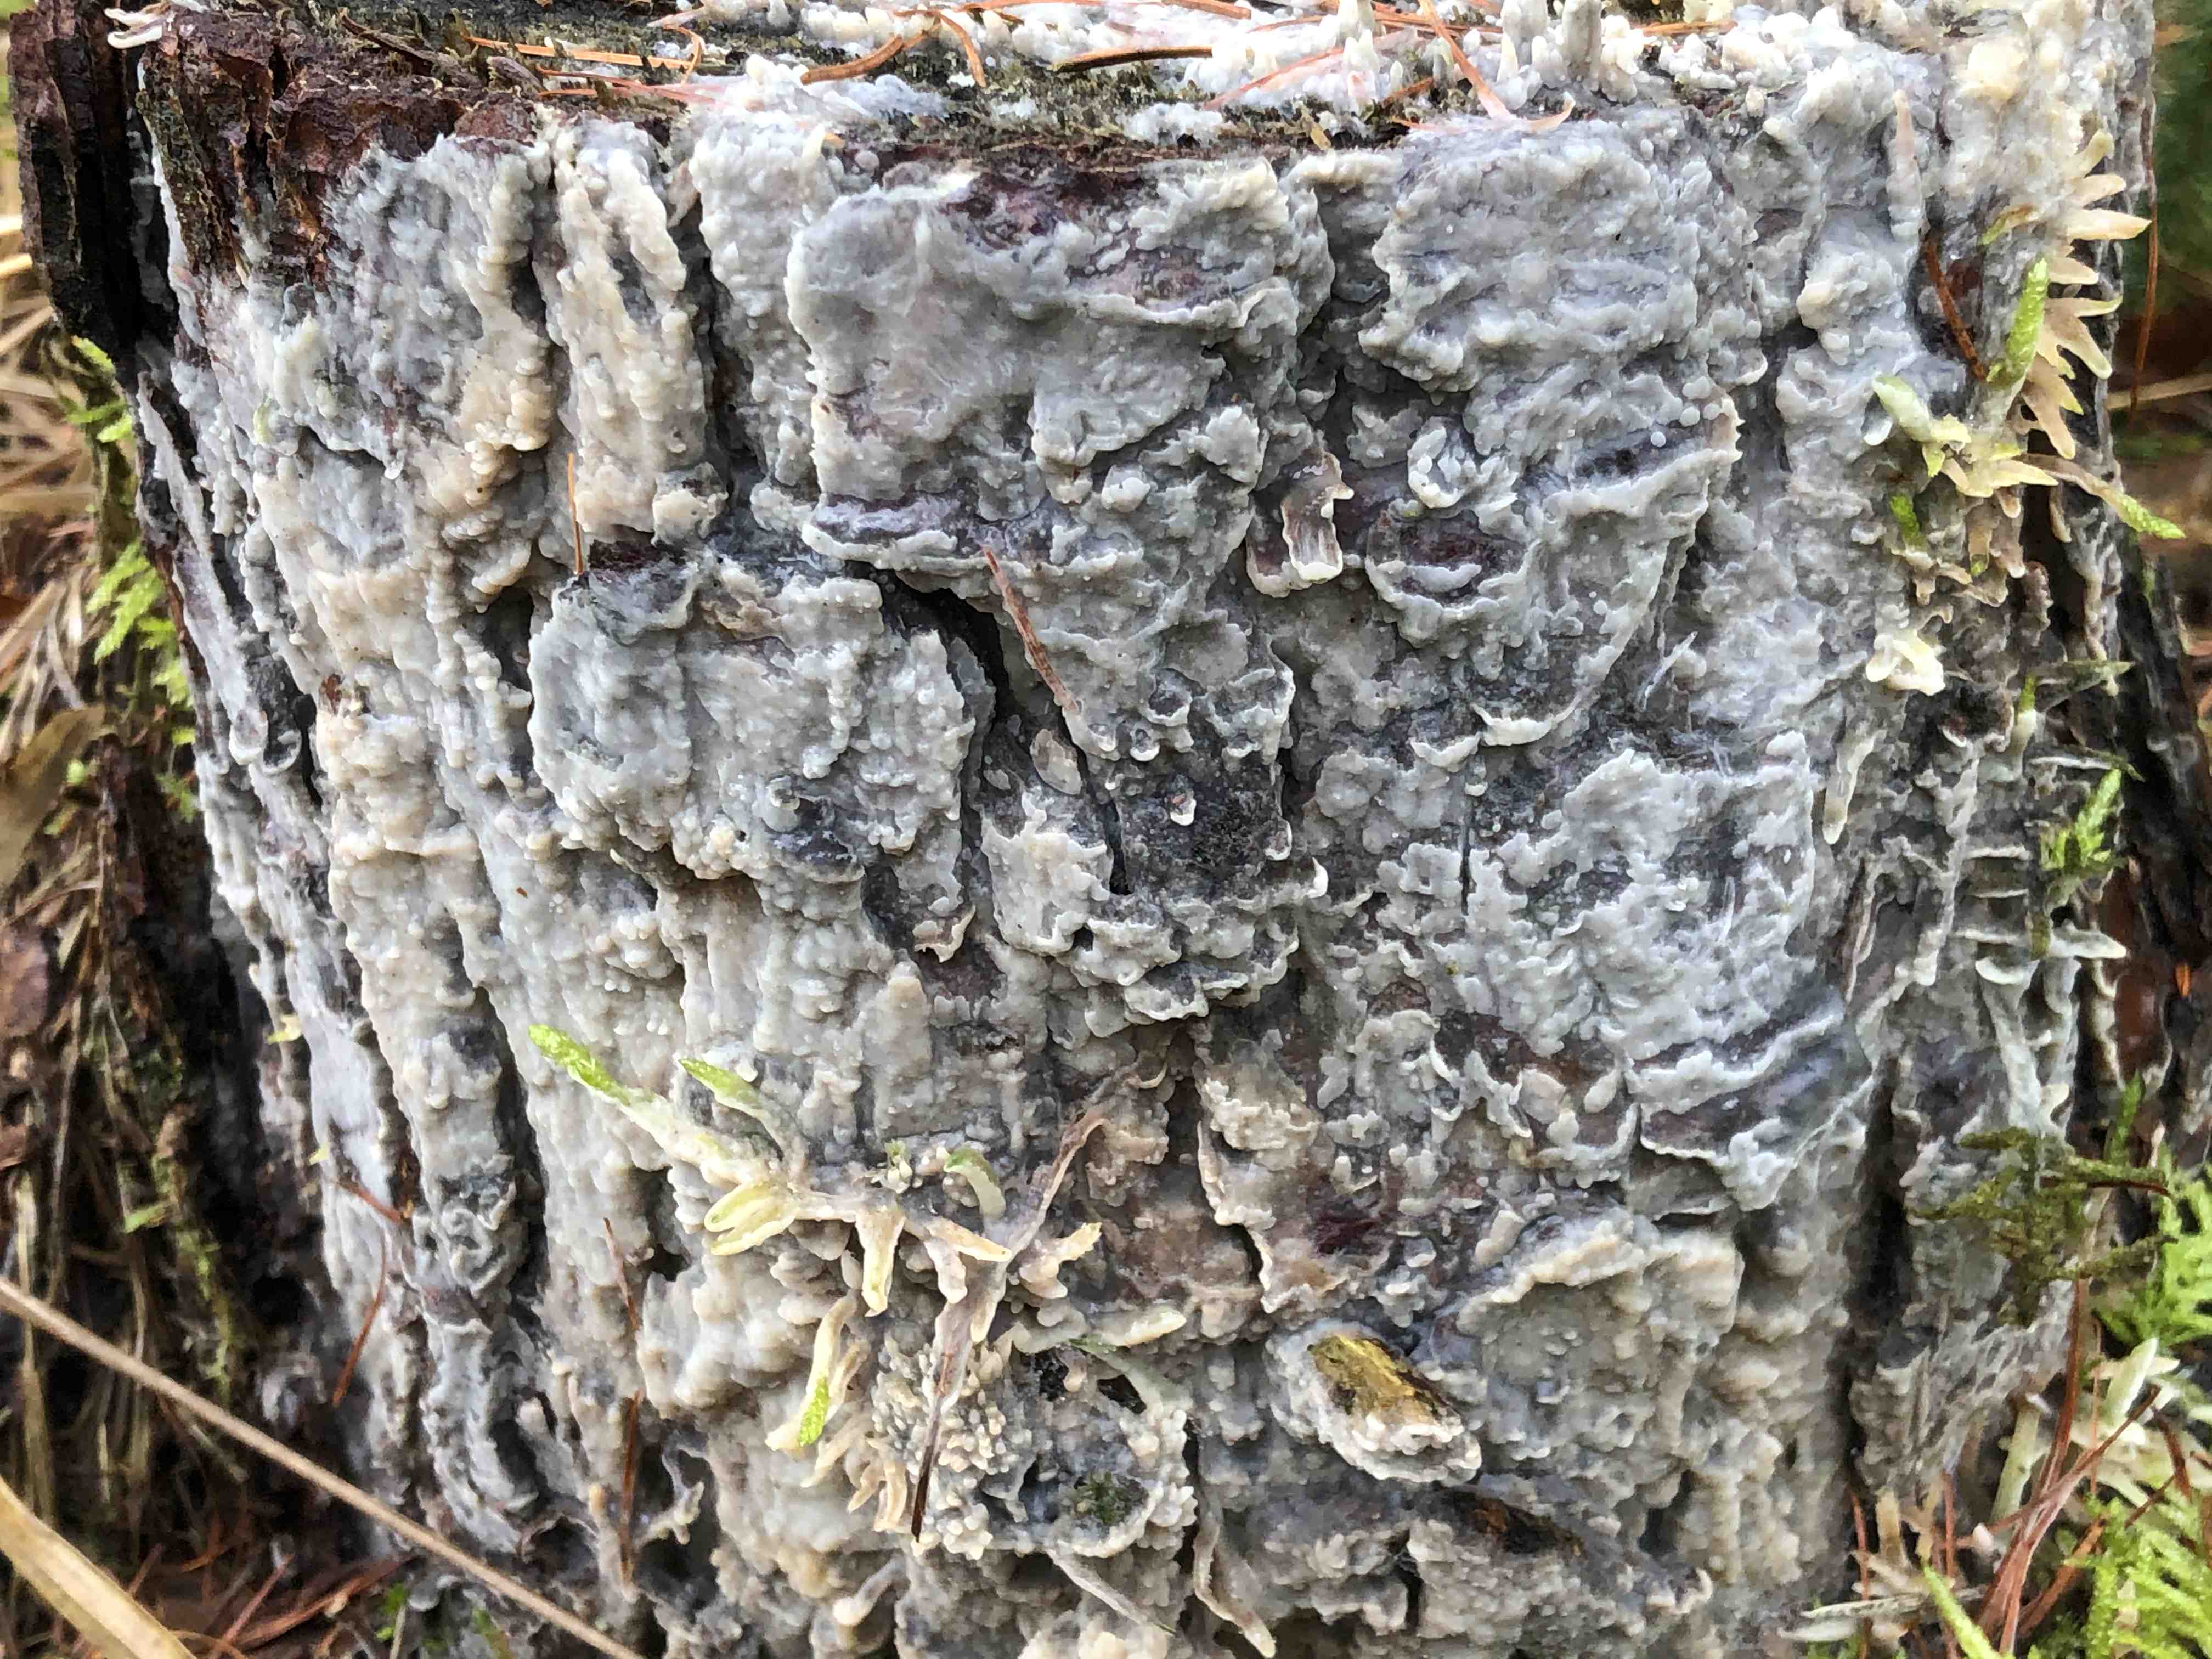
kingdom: Fungi
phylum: Basidiomycota
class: Agaricomycetes
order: Polyporales
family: Phanerochaetaceae
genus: Phlebiopsis
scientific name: Phlebiopsis gigantea
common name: kæmpebarksvamp
